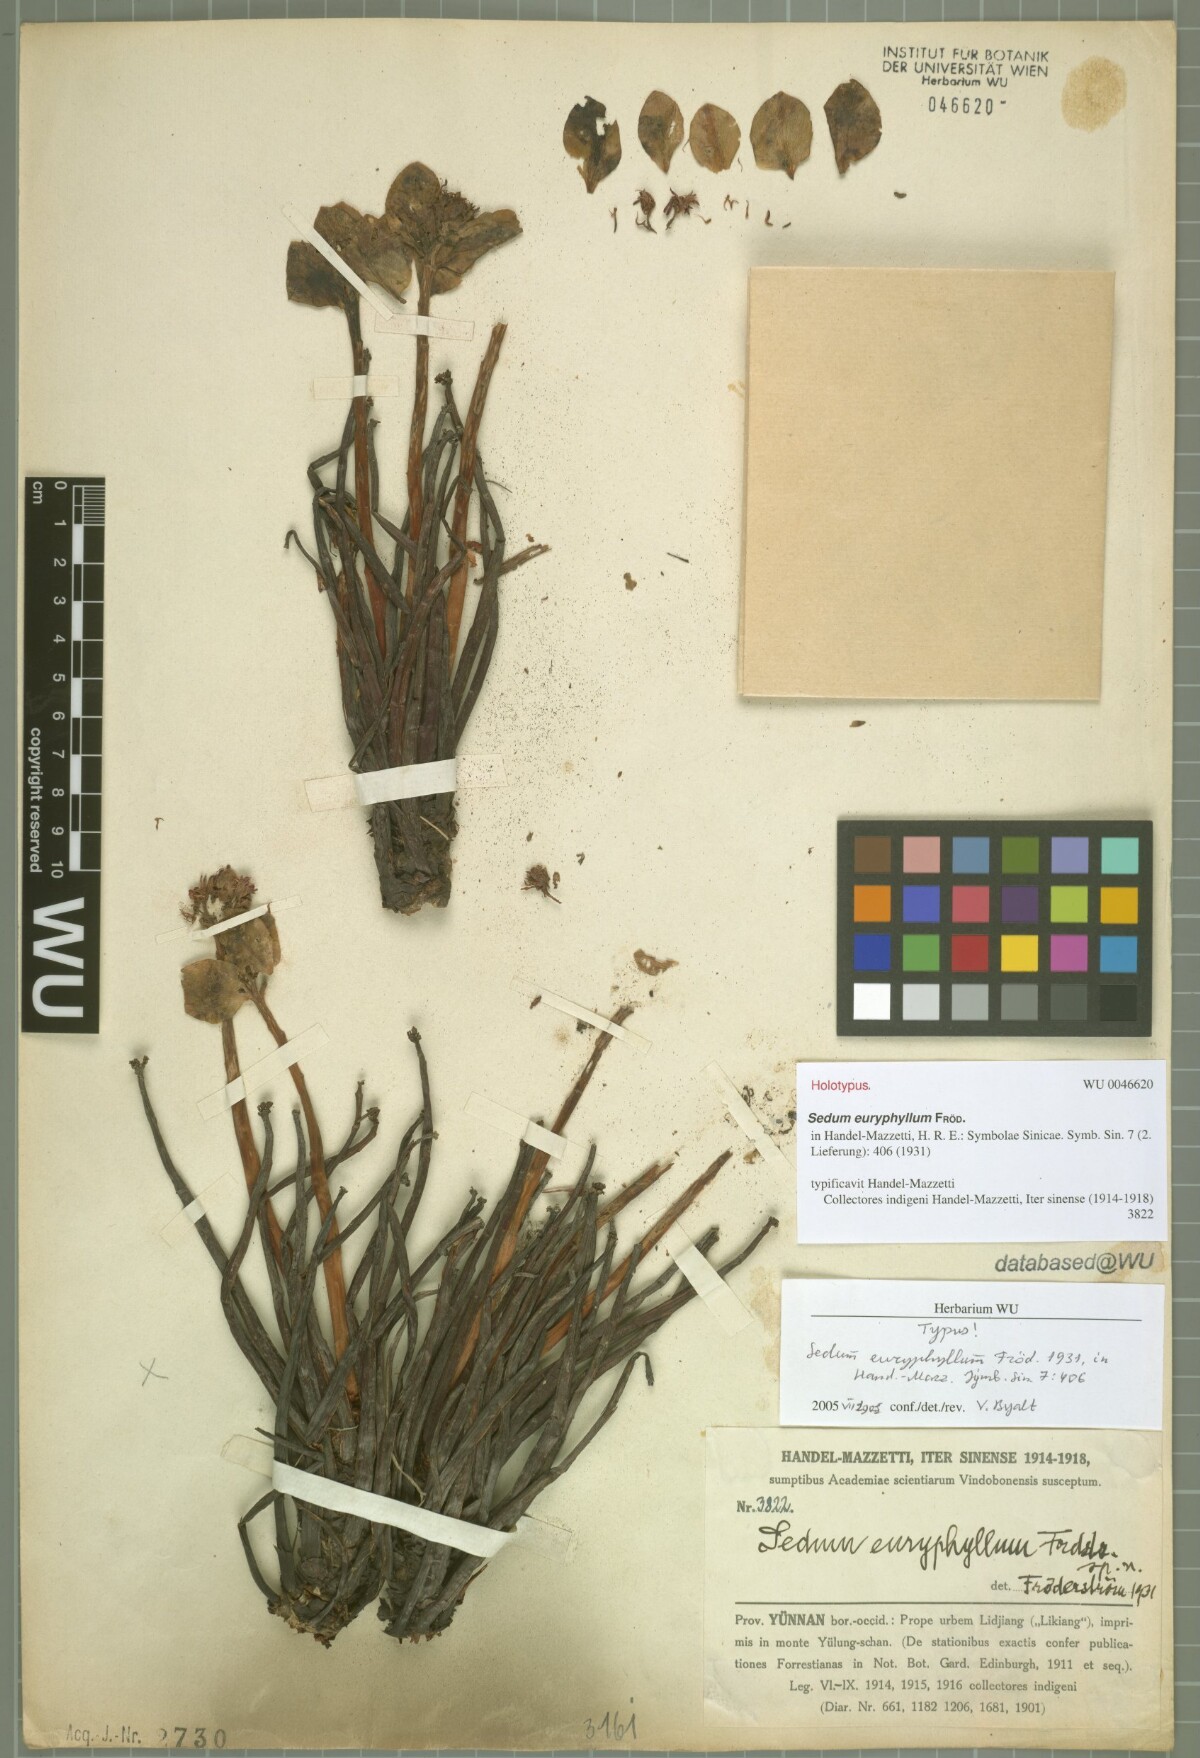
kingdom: Plantae
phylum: Tracheophyta
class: Magnoliopsida
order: Saxifragales
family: Crassulaceae
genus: Rhodiola
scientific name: Rhodiola crenulata
